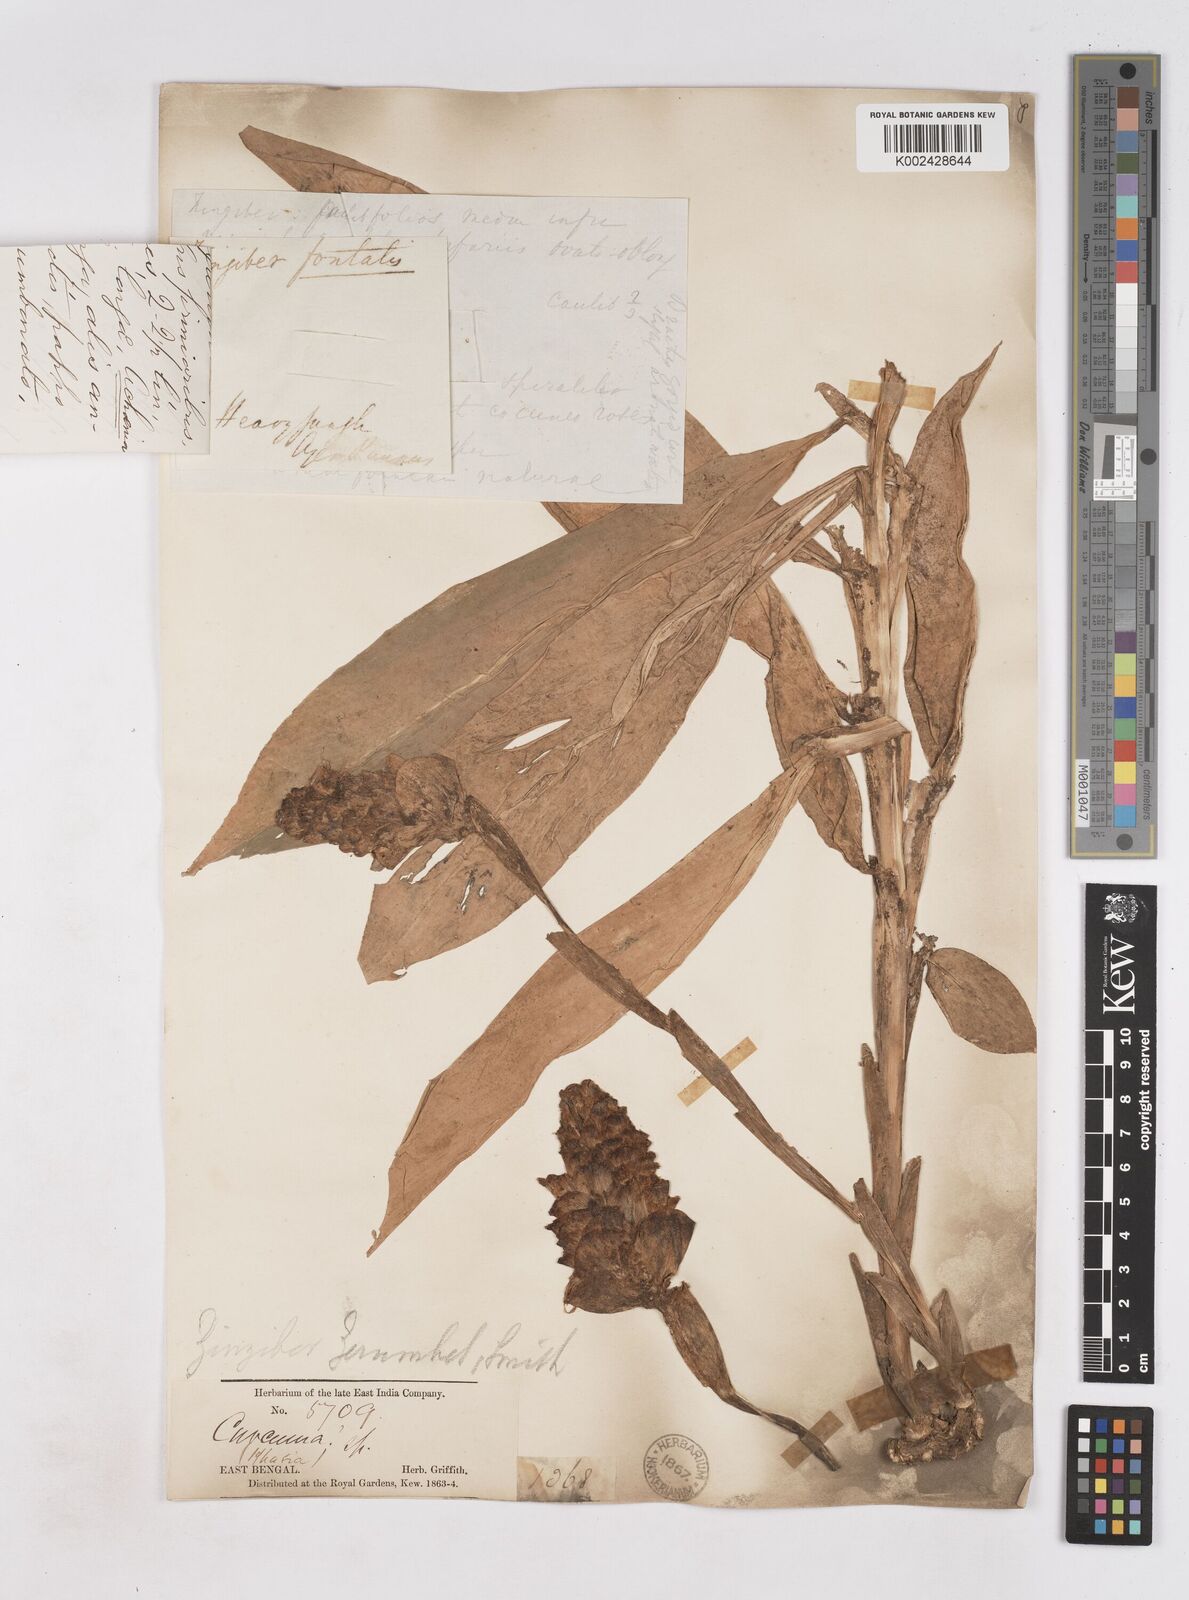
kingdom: Plantae
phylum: Tracheophyta
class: Liliopsida
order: Zingiberales
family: Zingiberaceae
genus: Zingiber
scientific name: Zingiber zerumbet
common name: Bitter ginger
